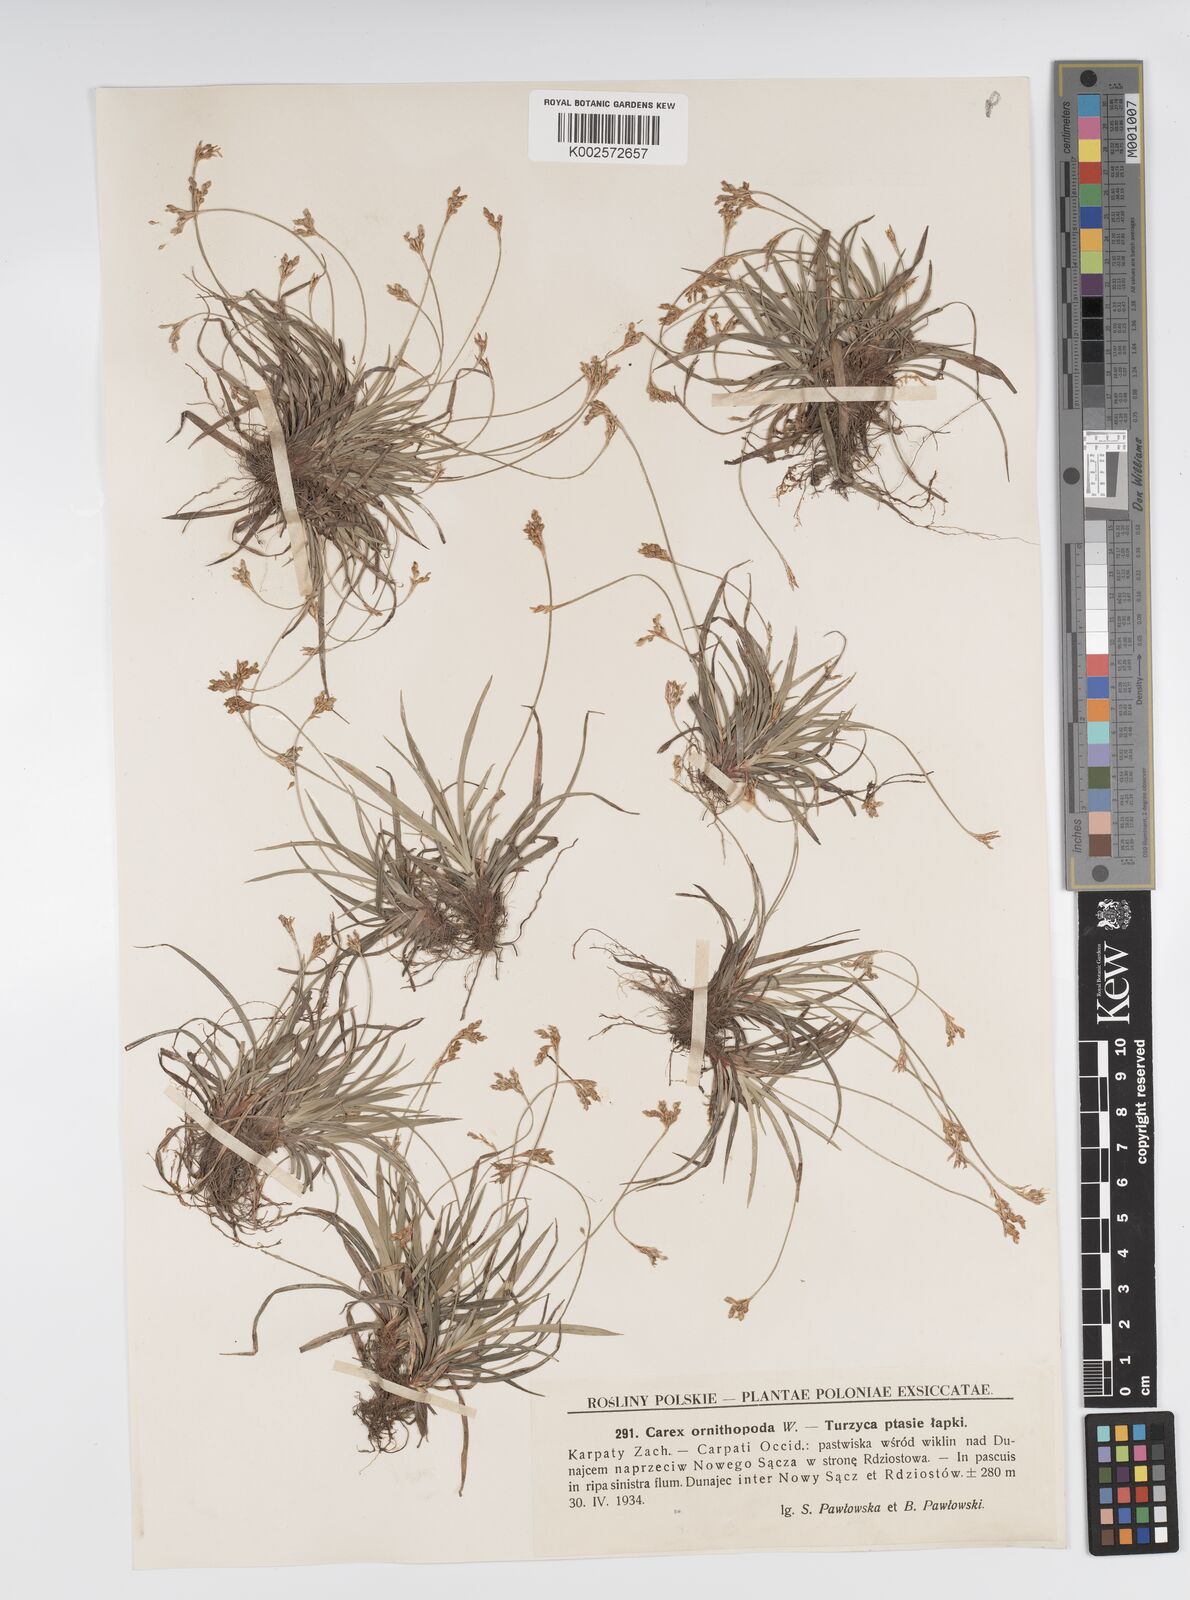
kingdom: Plantae
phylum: Tracheophyta
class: Liliopsida
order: Poales
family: Cyperaceae
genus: Carex
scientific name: Carex ornithopoda
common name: Bird's-foot sedge
